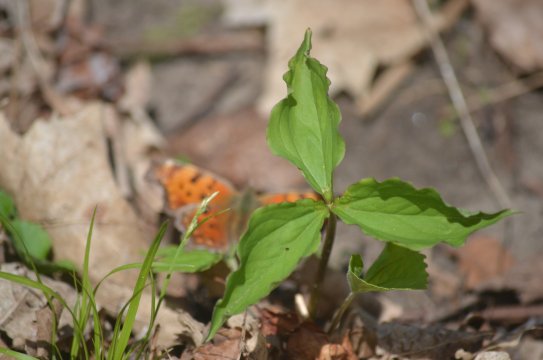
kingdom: Animalia
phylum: Arthropoda
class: Insecta
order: Lepidoptera
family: Nymphalidae
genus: Polygonia
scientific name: Polygonia comma
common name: Eastern Comma
